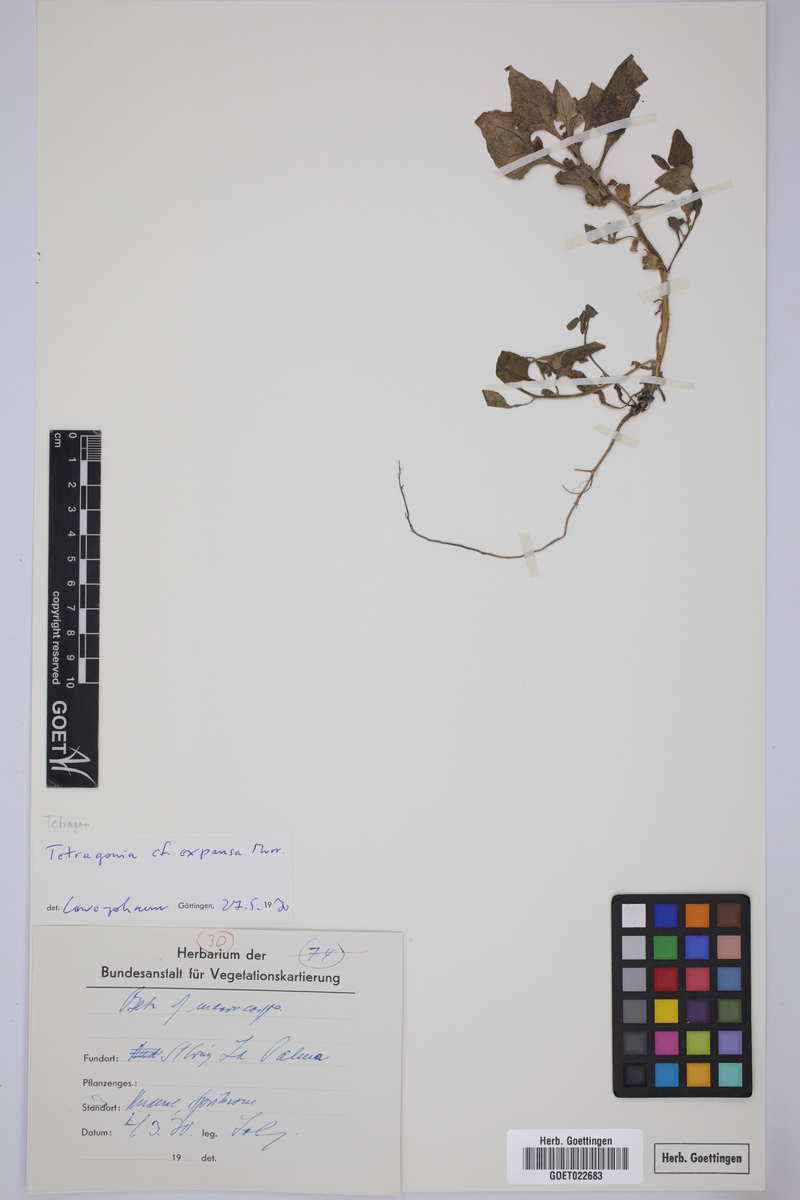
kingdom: Plantae
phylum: Tracheophyta
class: Magnoliopsida
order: Caryophyllales
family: Aizoaceae
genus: Tetragonia
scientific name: Tetragonia tetragonoides
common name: New zealand-spinach
